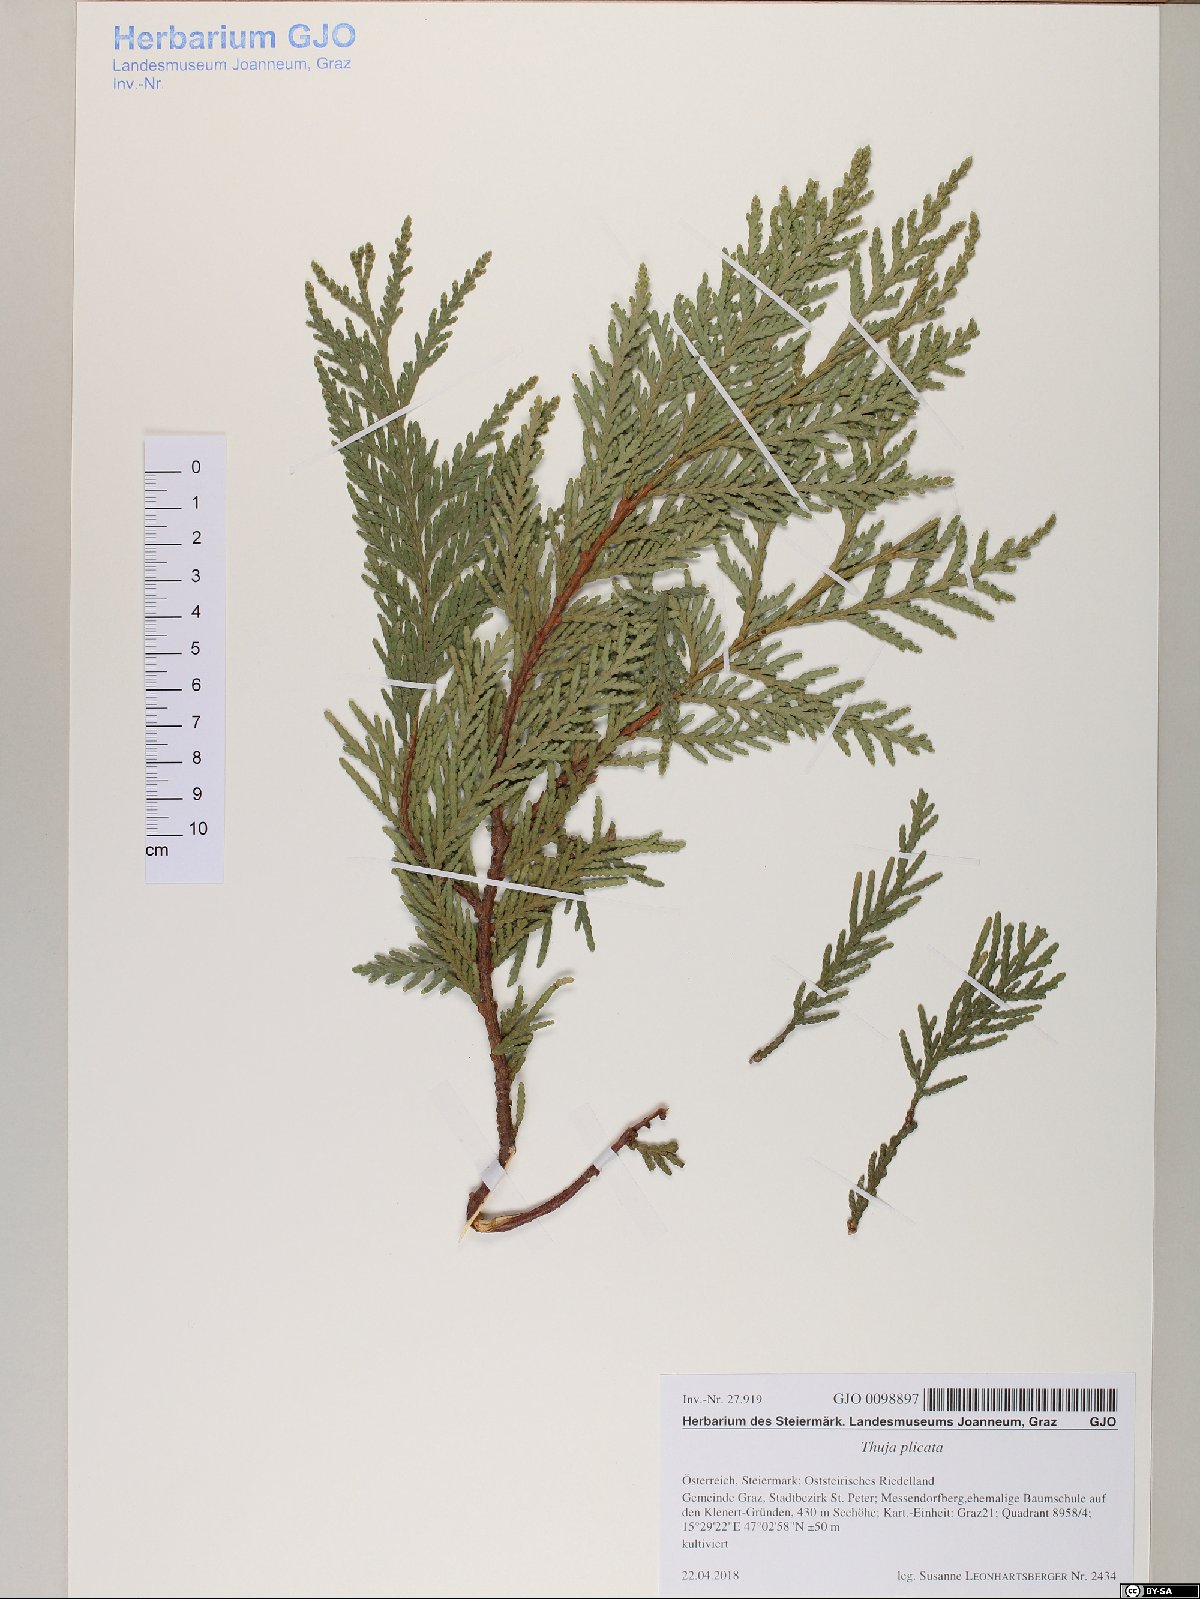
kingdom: Plantae
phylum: Tracheophyta
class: Pinopsida
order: Pinales
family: Cupressaceae
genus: Thuja
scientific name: Thuja plicata
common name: Western red-cedar
